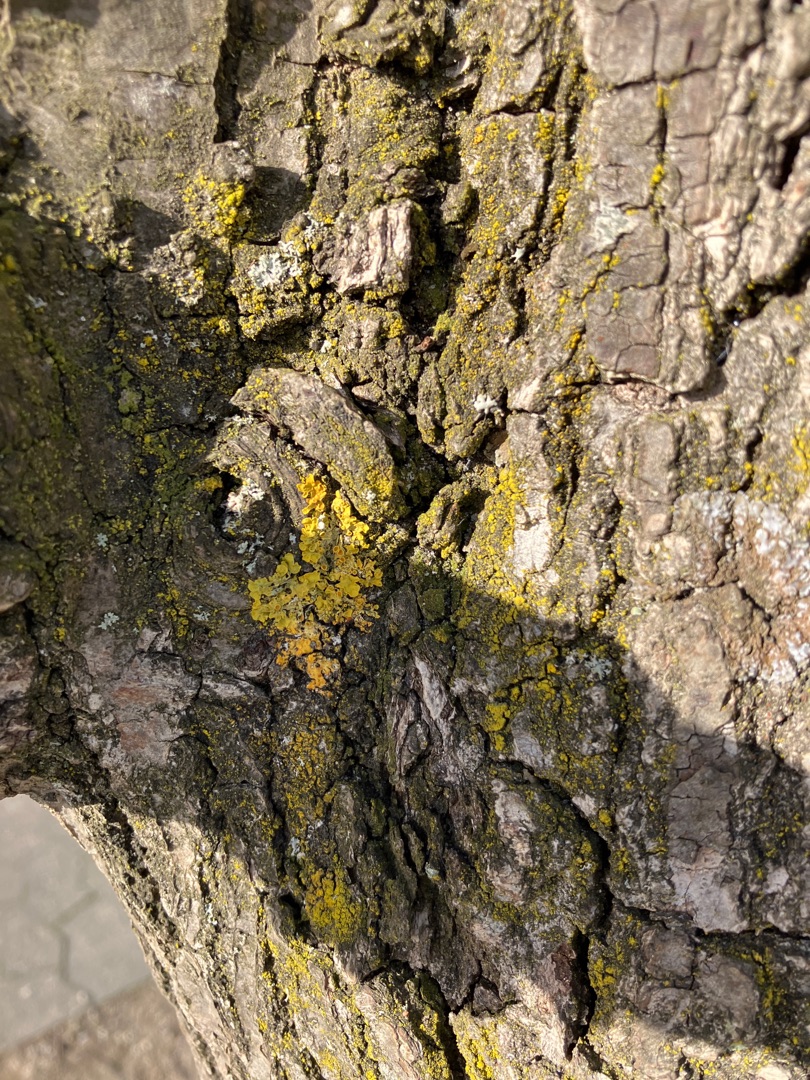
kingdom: Fungi
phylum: Ascomycota
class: Lecanoromycetes
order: Teloschistales
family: Teloschistaceae
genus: Xanthoria
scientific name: Xanthoria parietina
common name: Almindelig væggelav
